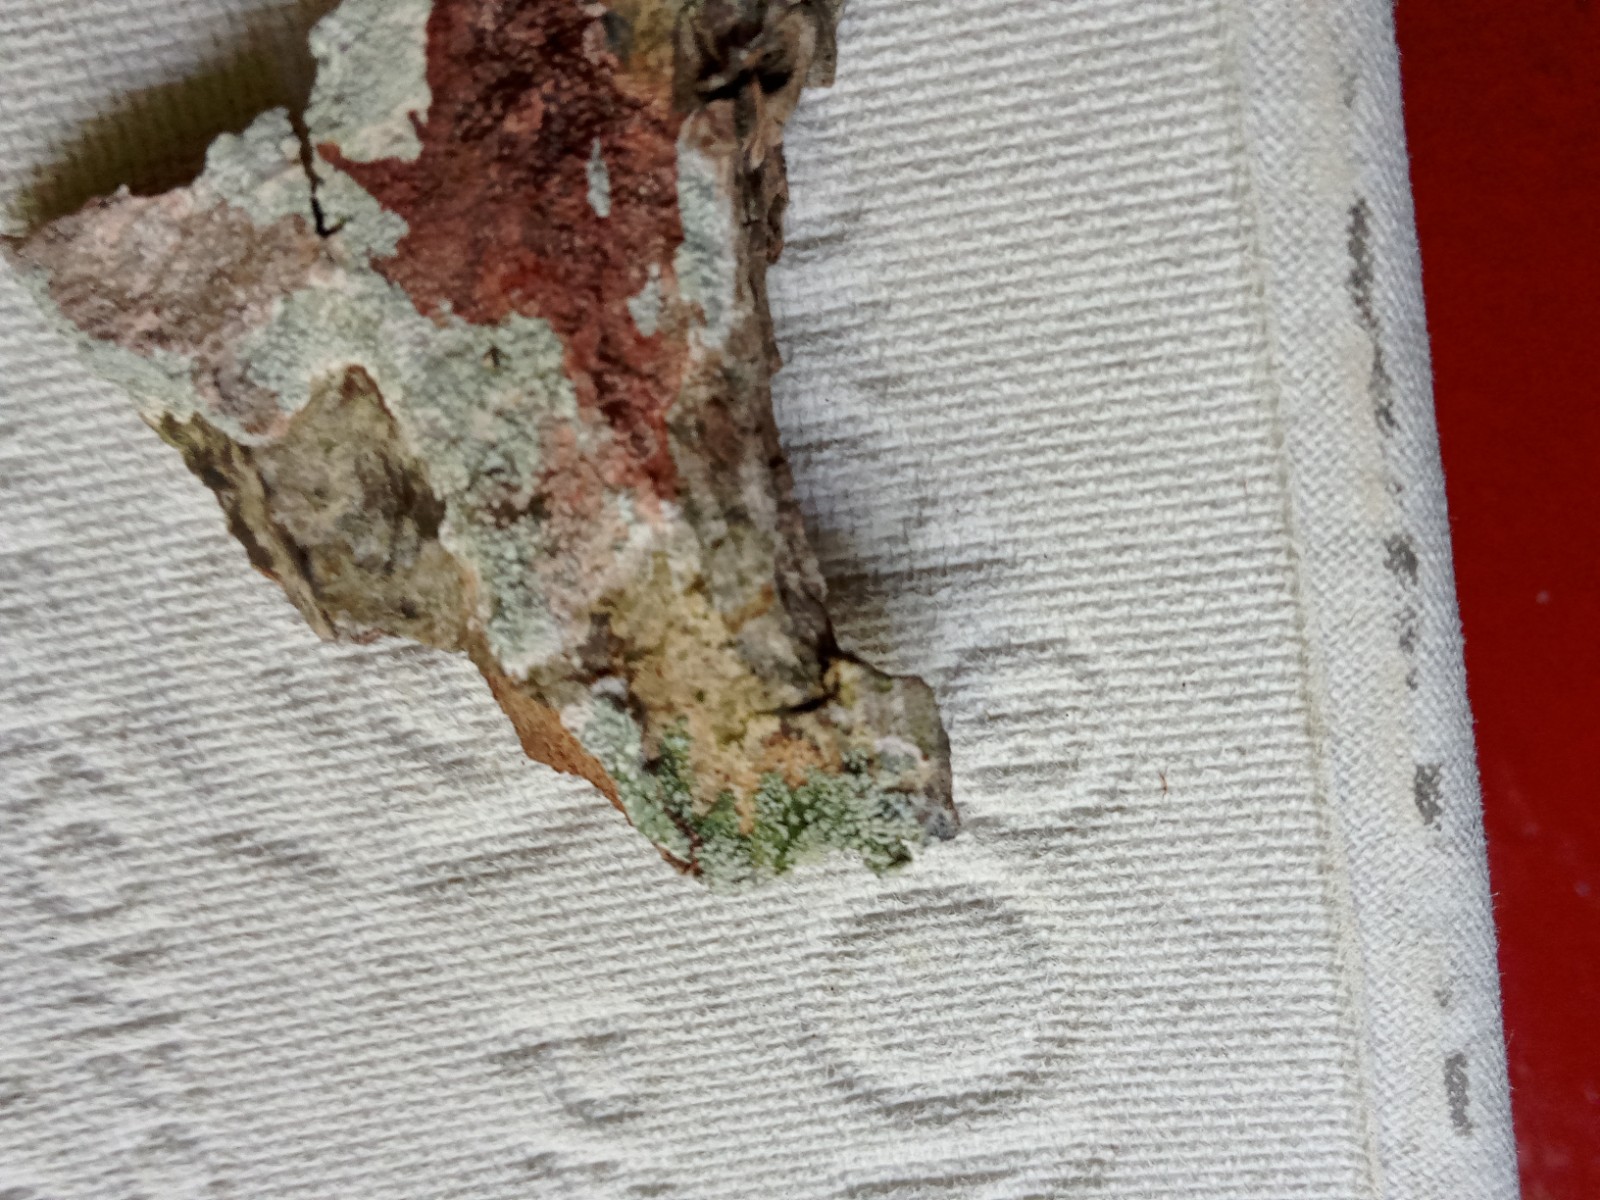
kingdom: Fungi
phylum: Ascomycota
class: Lecanoromycetes
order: Lecanorales
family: Lecanoraceae
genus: Lecanora
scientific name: Lecanora expallens
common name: bleggul kantskivelav
